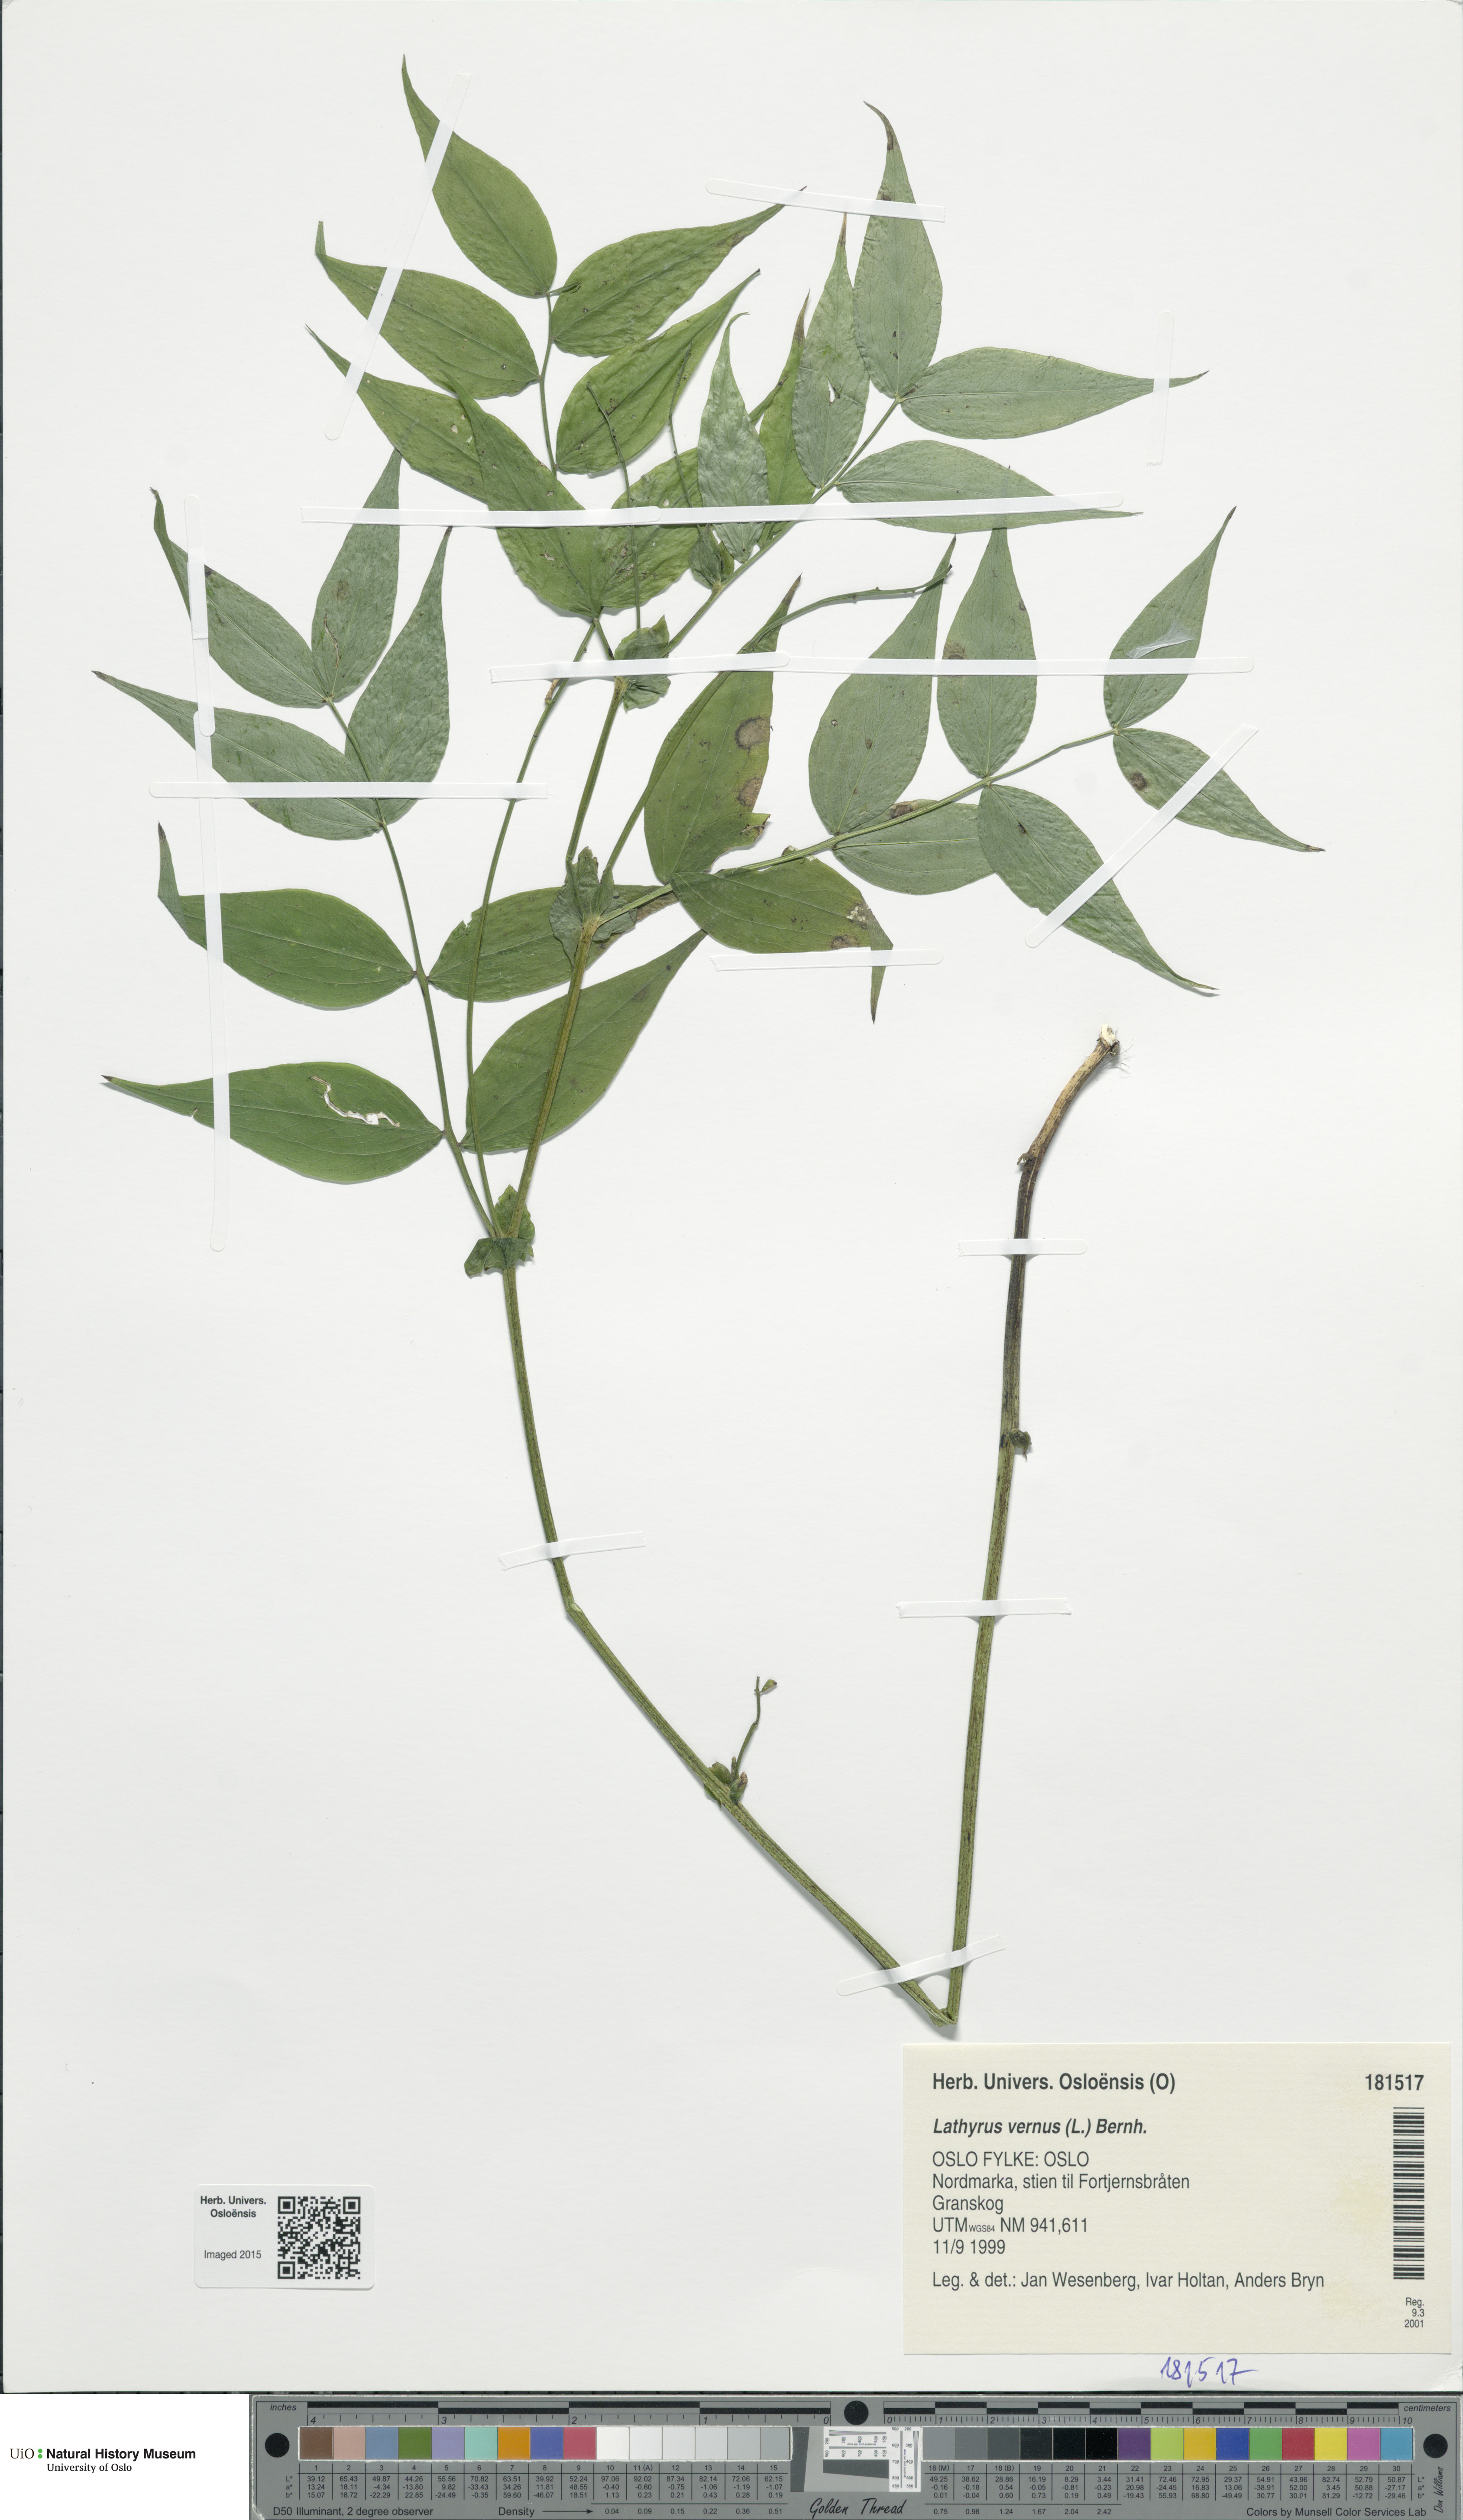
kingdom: Plantae
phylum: Tracheophyta
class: Magnoliopsida
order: Fabales
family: Fabaceae
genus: Lathyrus
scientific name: Lathyrus vernus
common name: Spring pea
